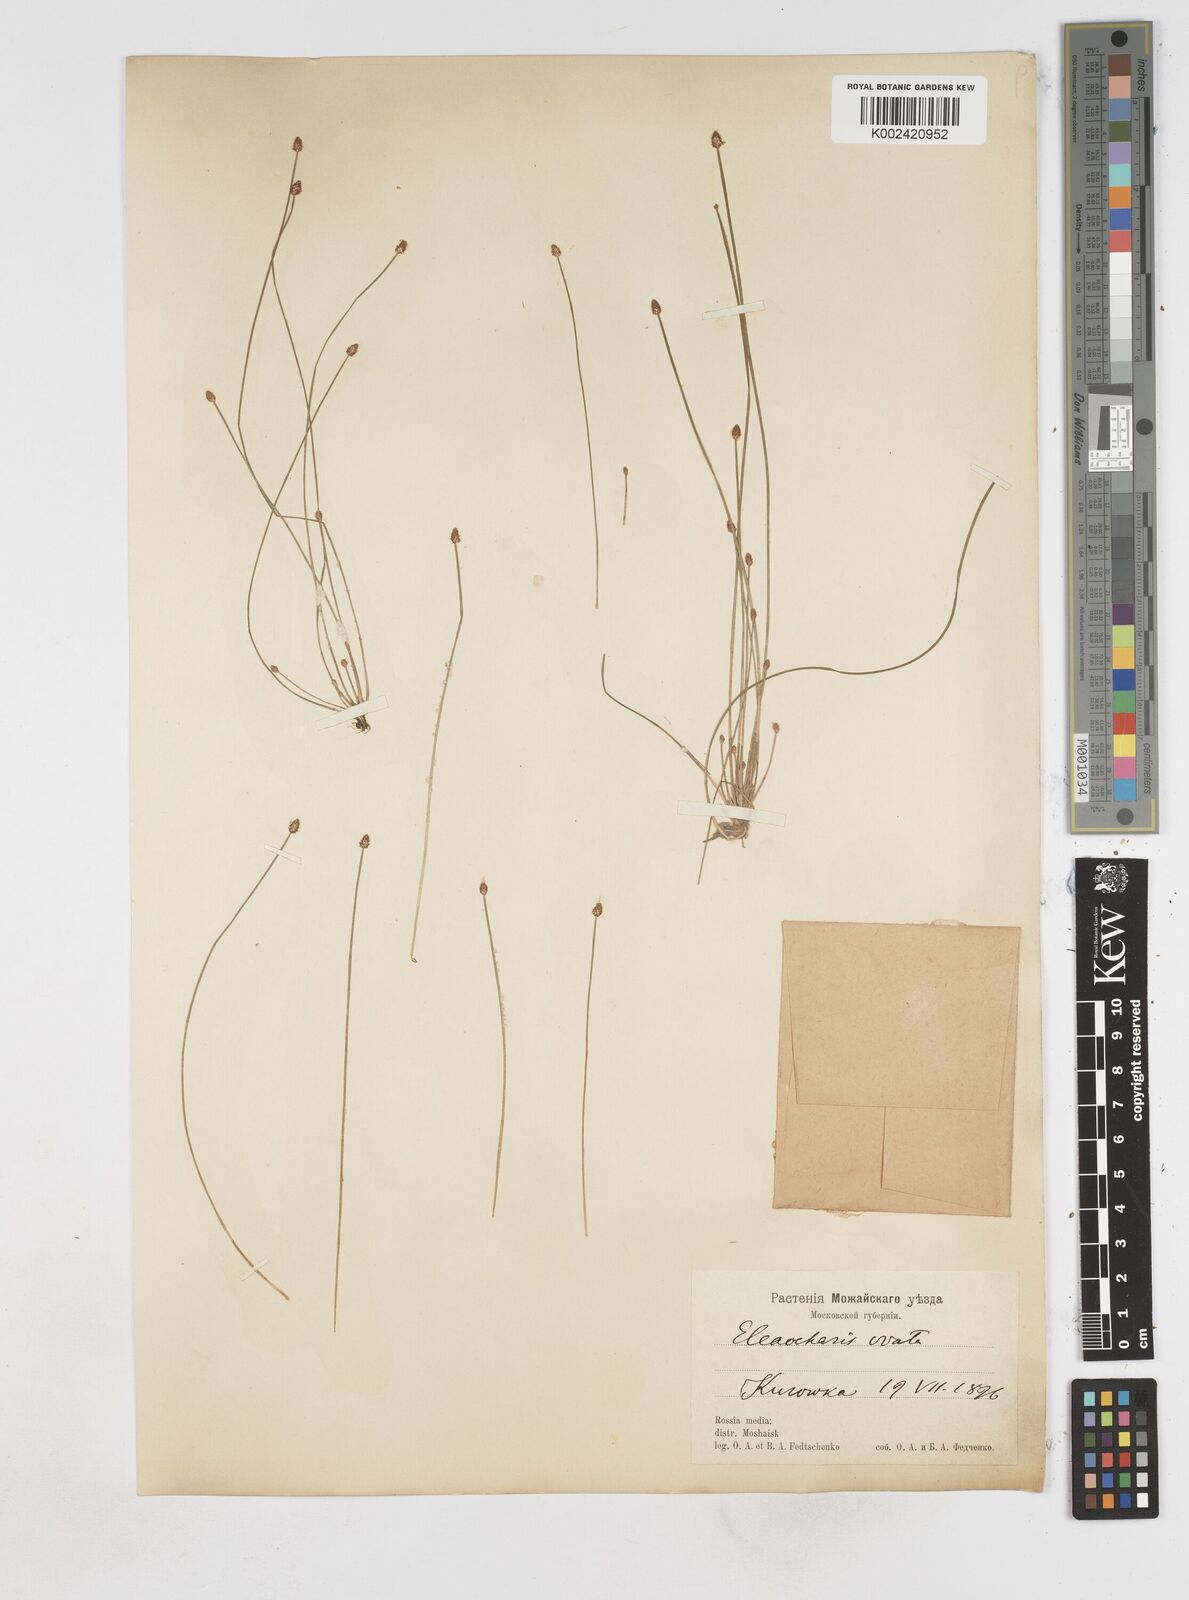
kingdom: Plantae
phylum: Tracheophyta
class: Liliopsida
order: Poales
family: Cyperaceae
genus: Eleocharis
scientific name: Eleocharis ovata
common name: Oval spike-rush
